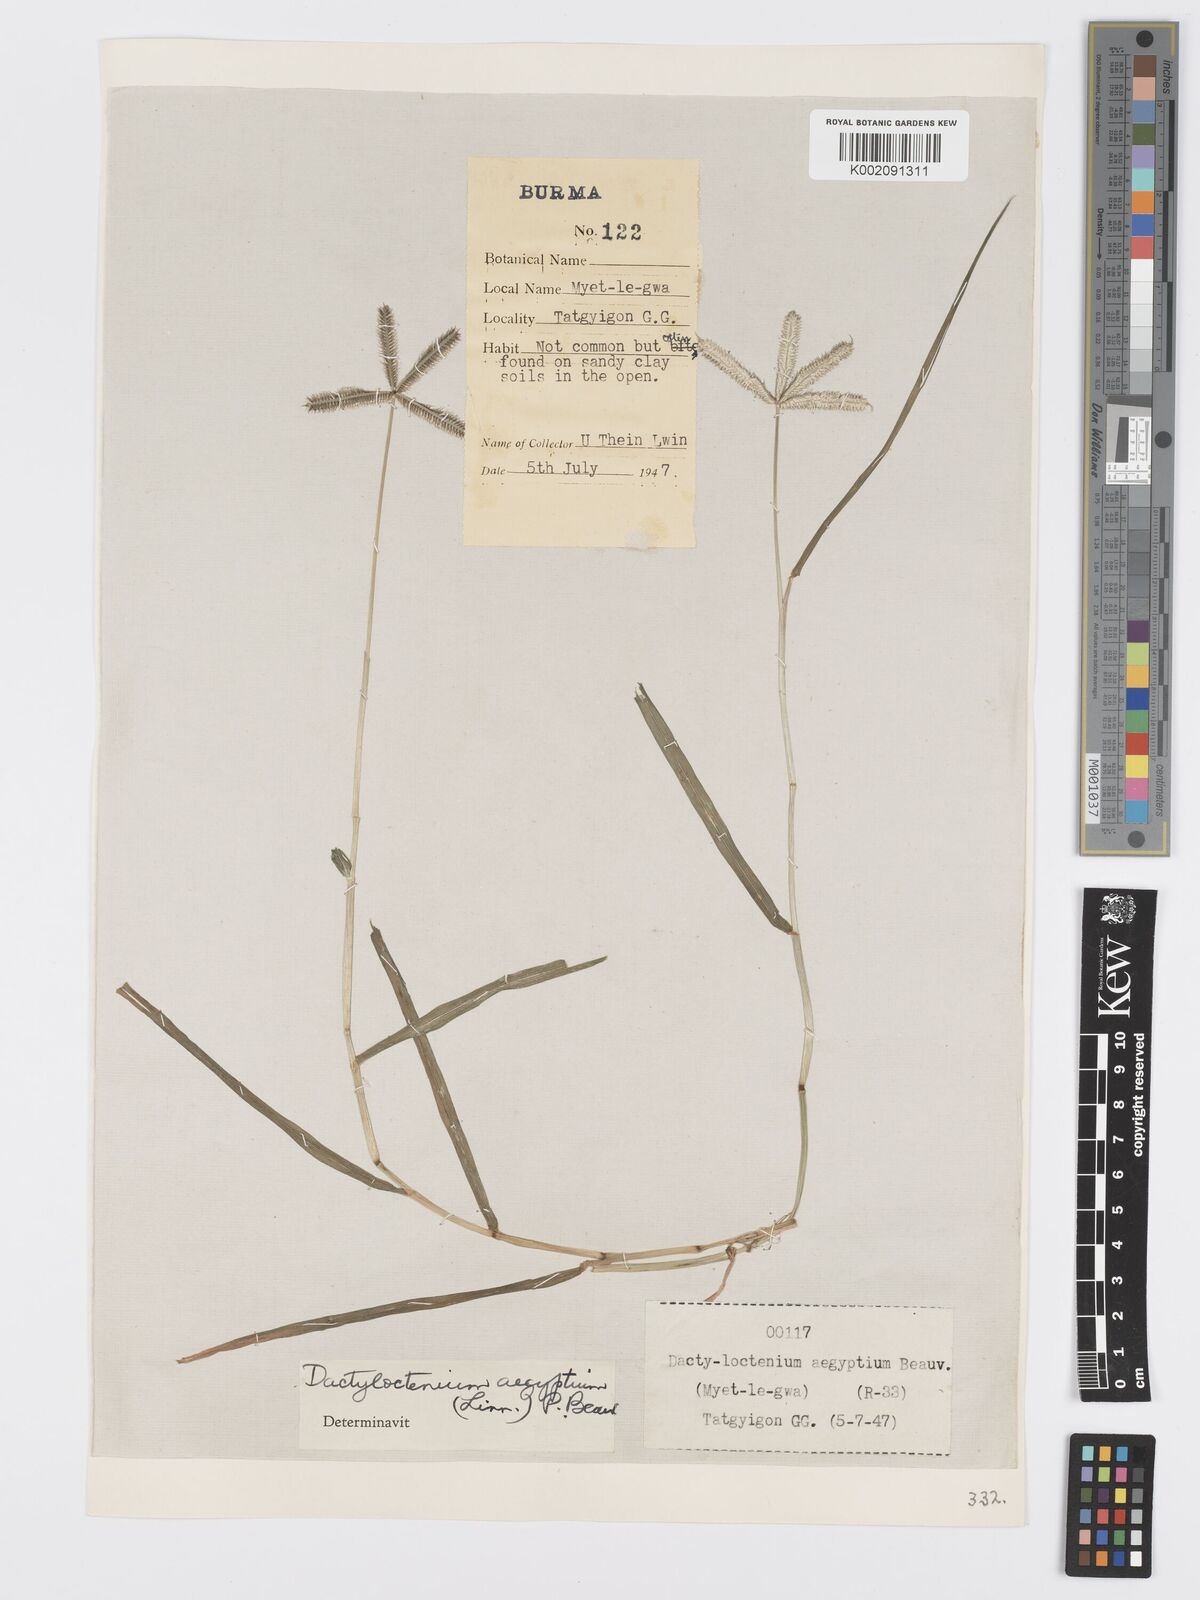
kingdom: Plantae
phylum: Tracheophyta
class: Liliopsida
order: Poales
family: Poaceae
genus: Dactyloctenium
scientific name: Dactyloctenium aegyptium
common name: Egyptian grass
